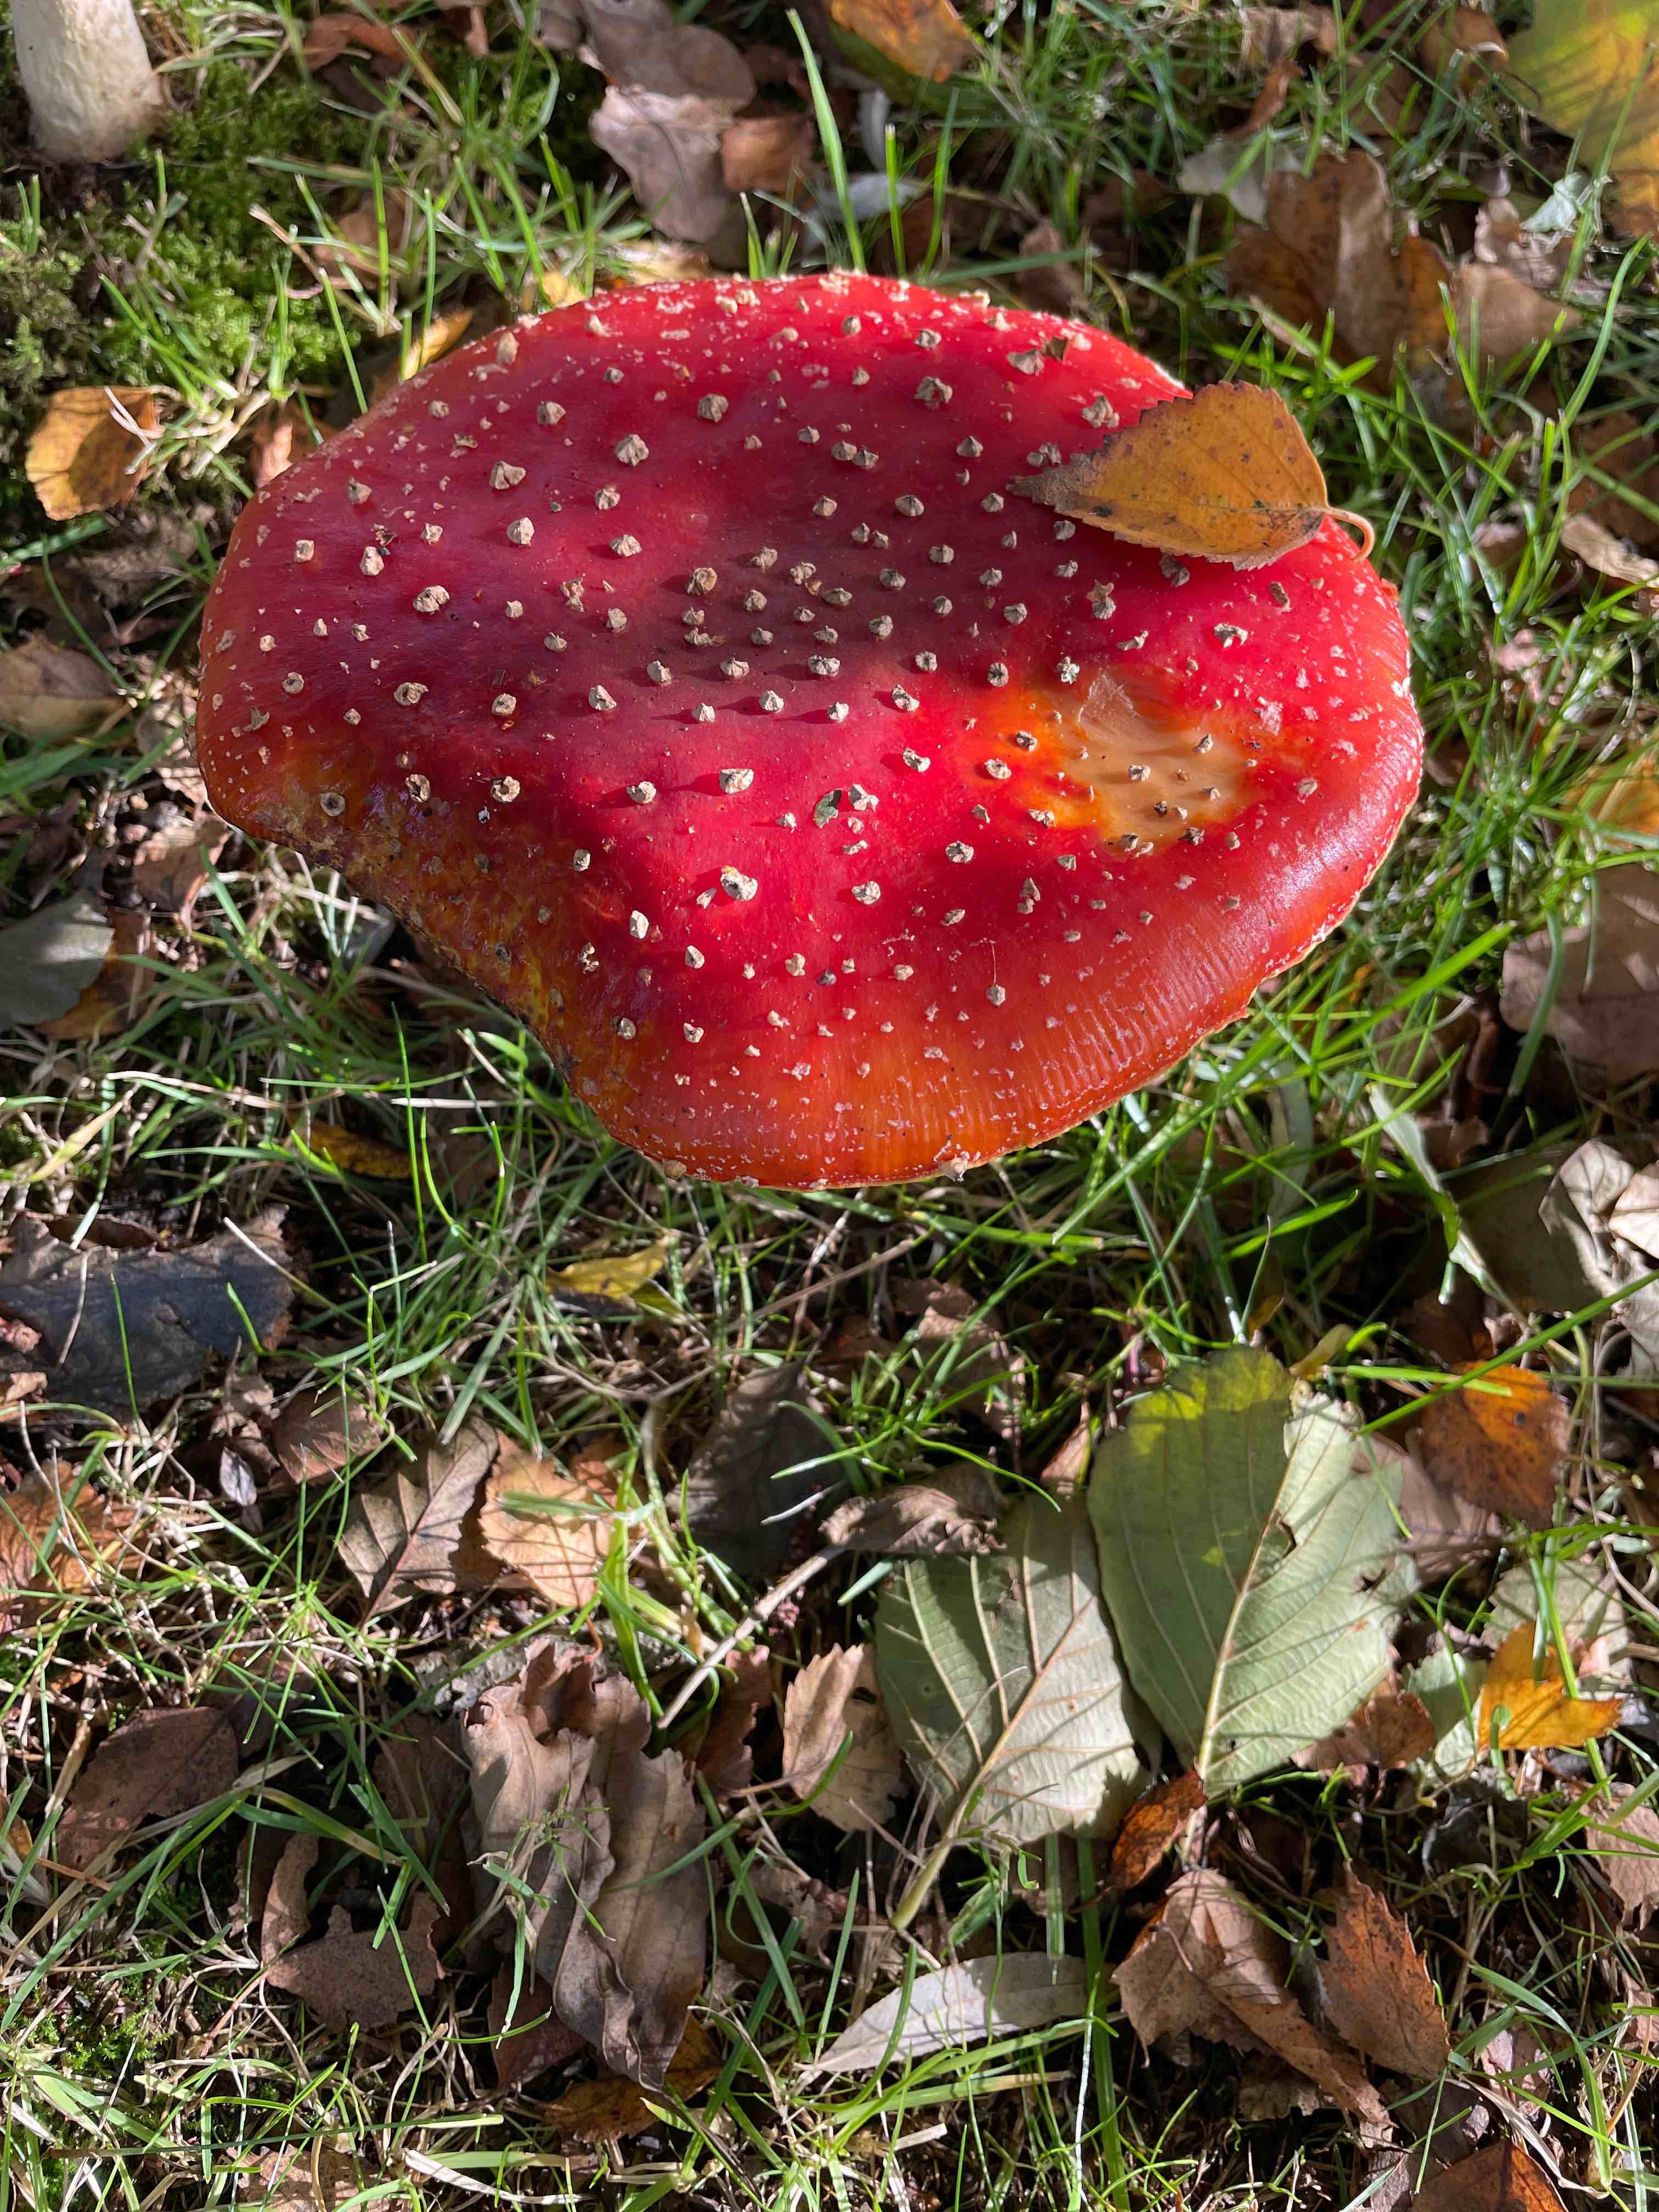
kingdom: Fungi
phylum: Basidiomycota
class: Agaricomycetes
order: Agaricales
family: Amanitaceae
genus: Amanita
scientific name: Amanita muscaria
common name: rød fluesvamp
